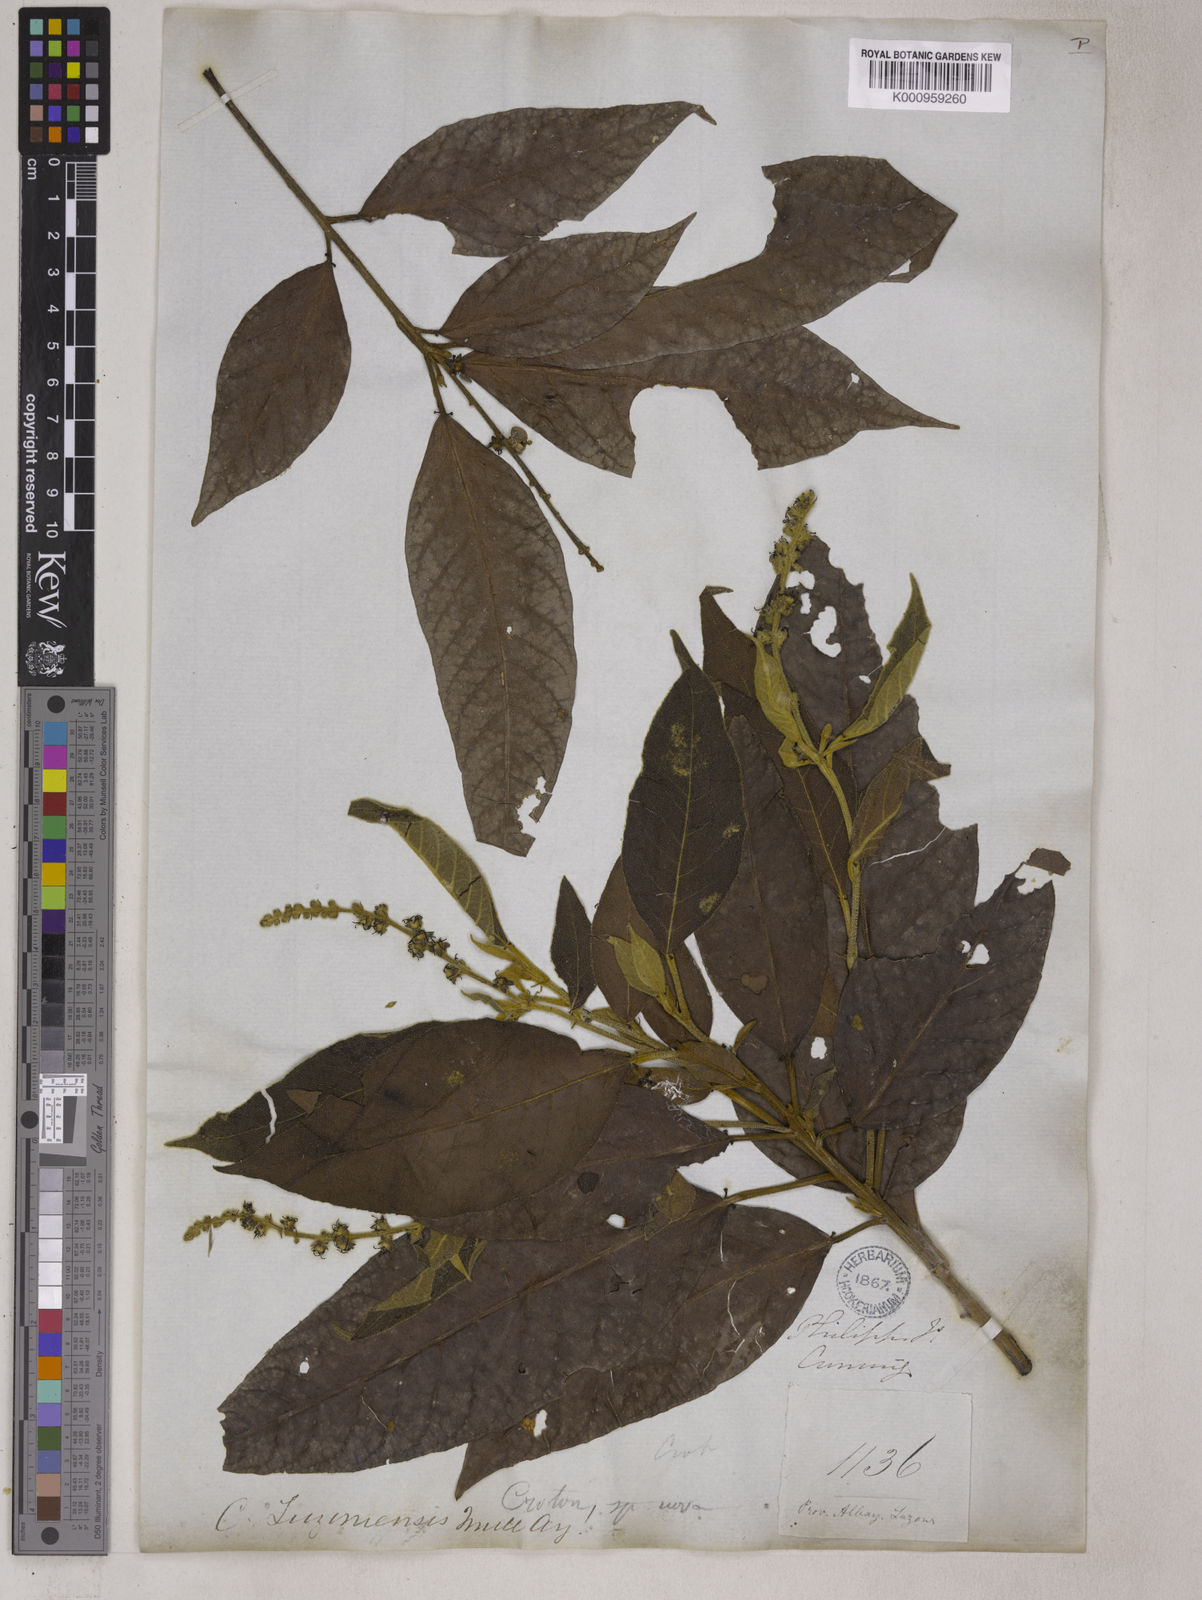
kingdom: Plantae
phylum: Tracheophyta
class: Magnoliopsida
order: Malpighiales
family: Euphorbiaceae
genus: Croton
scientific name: Croton
